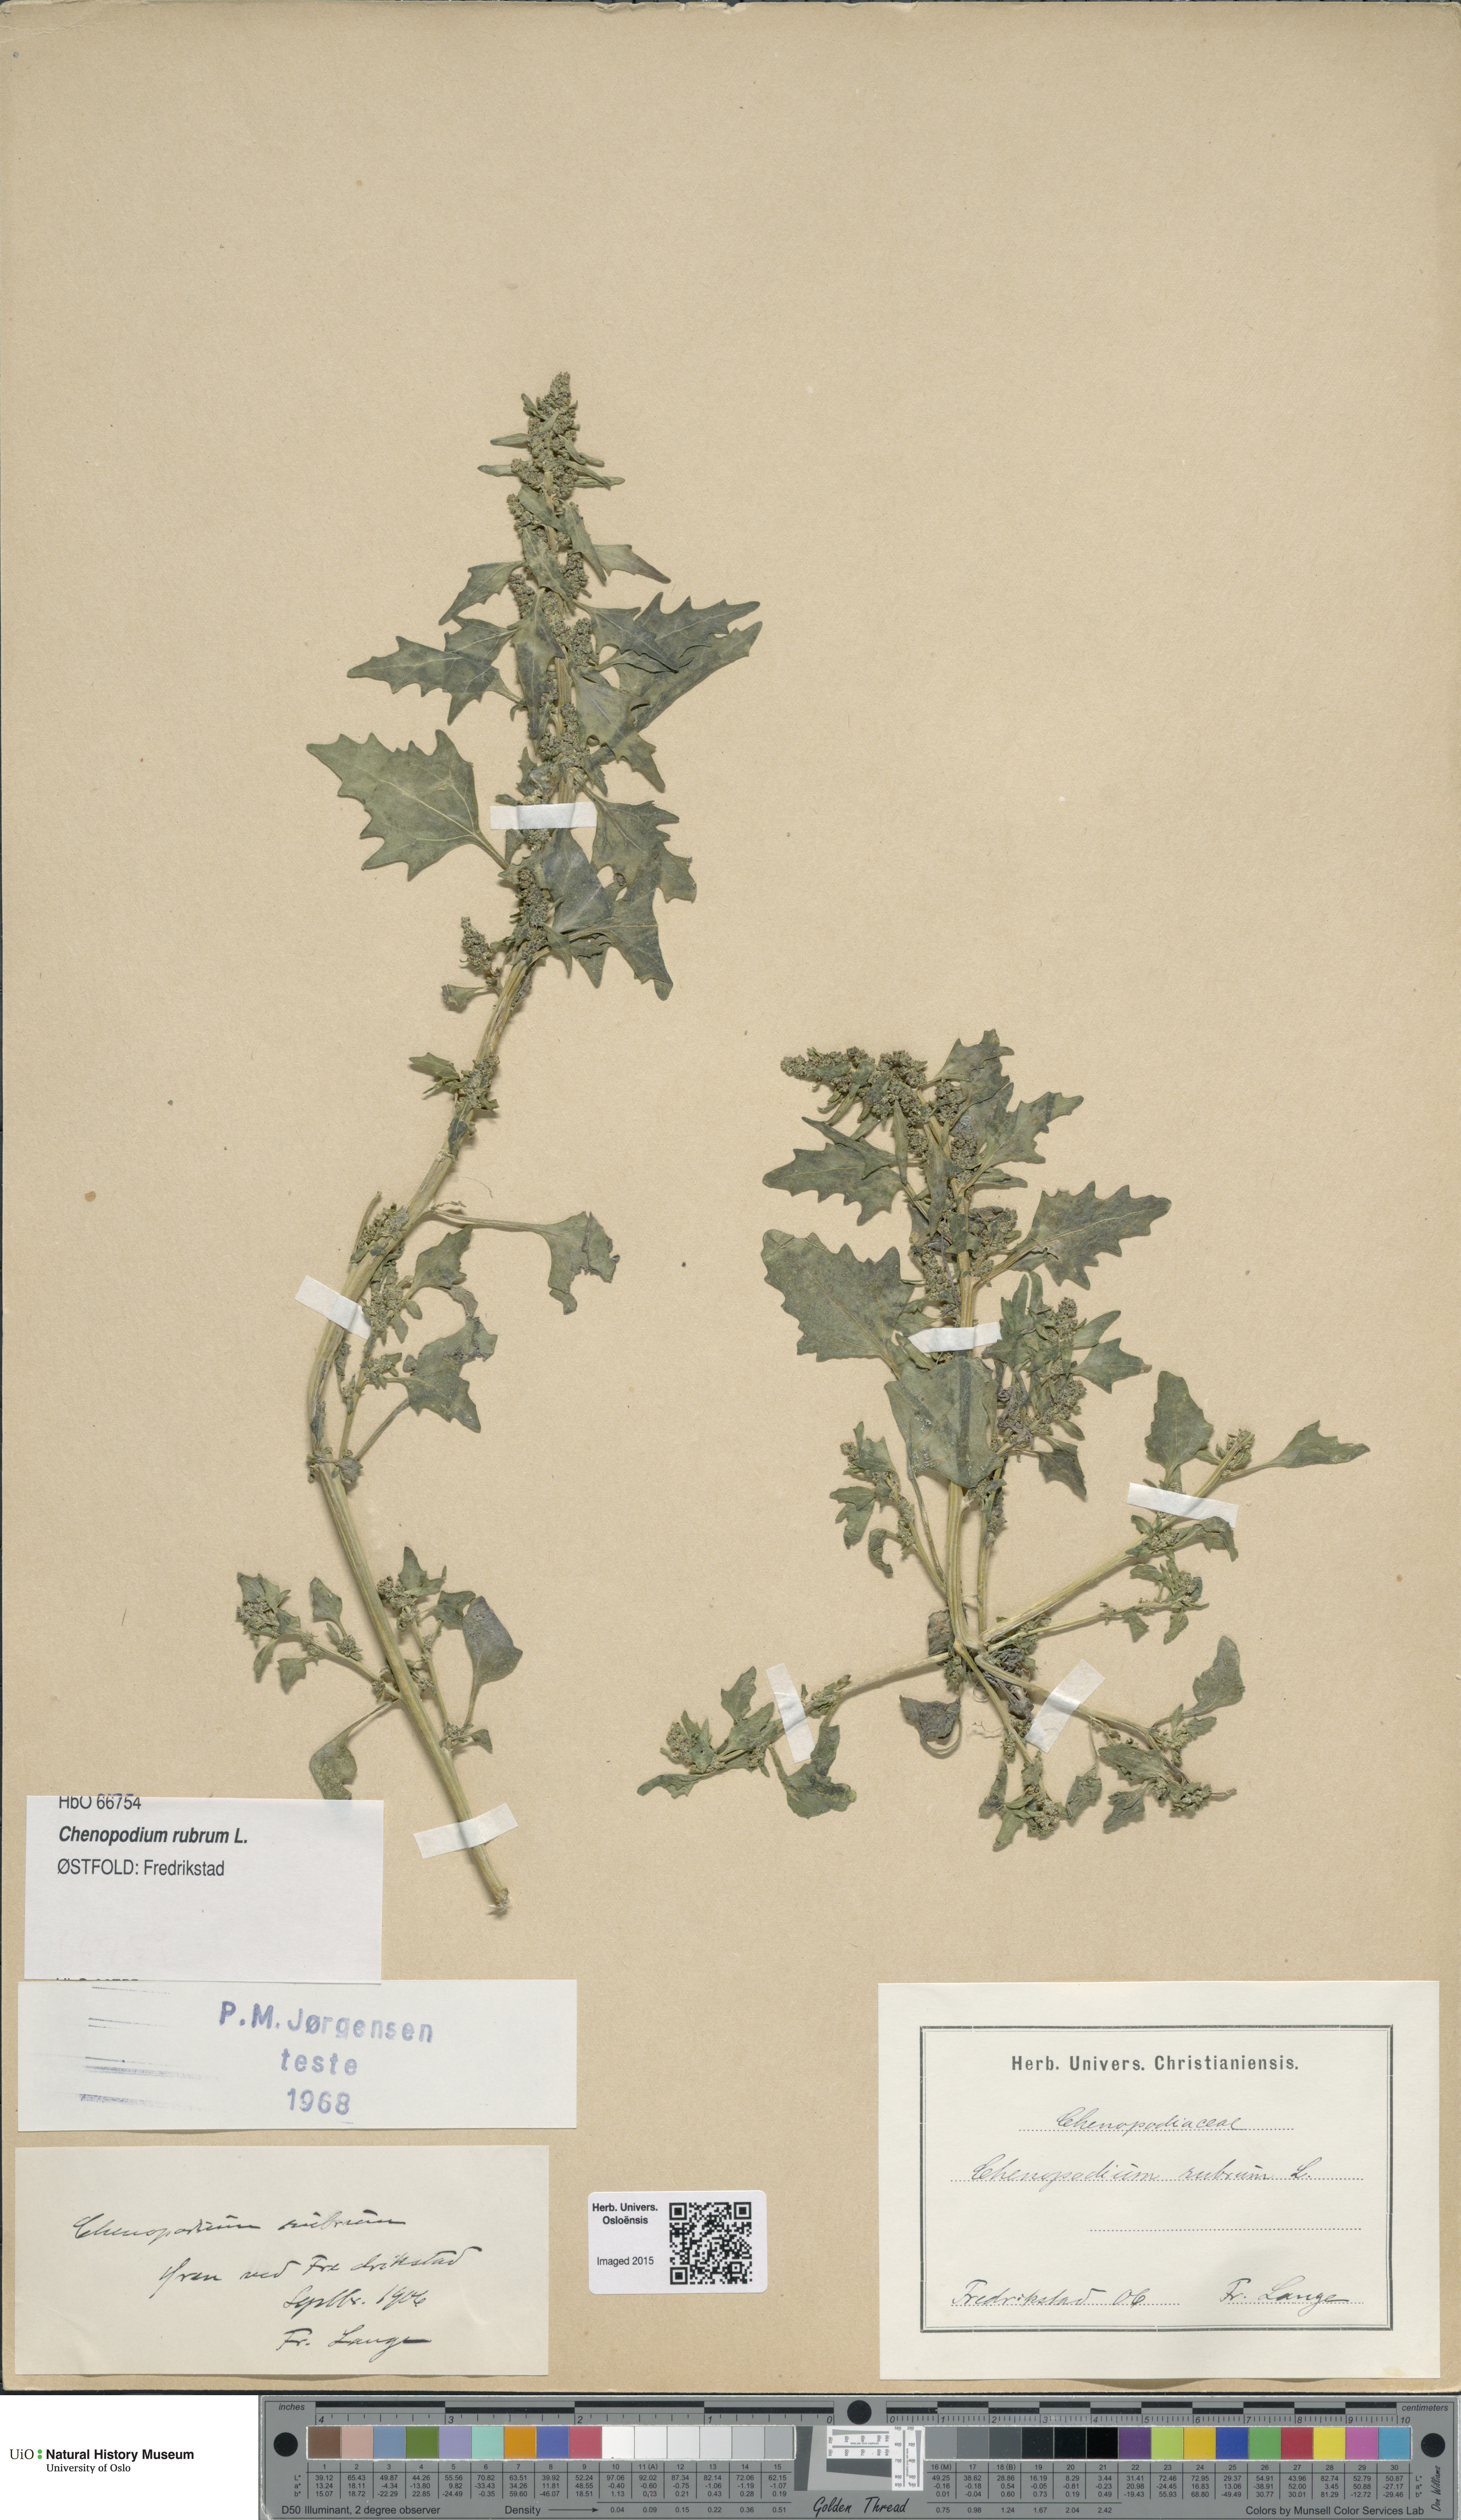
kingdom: Plantae
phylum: Tracheophyta
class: Magnoliopsida
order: Caryophyllales
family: Amaranthaceae
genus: Oxybasis
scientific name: Oxybasis rubra
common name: Red goosefoot
